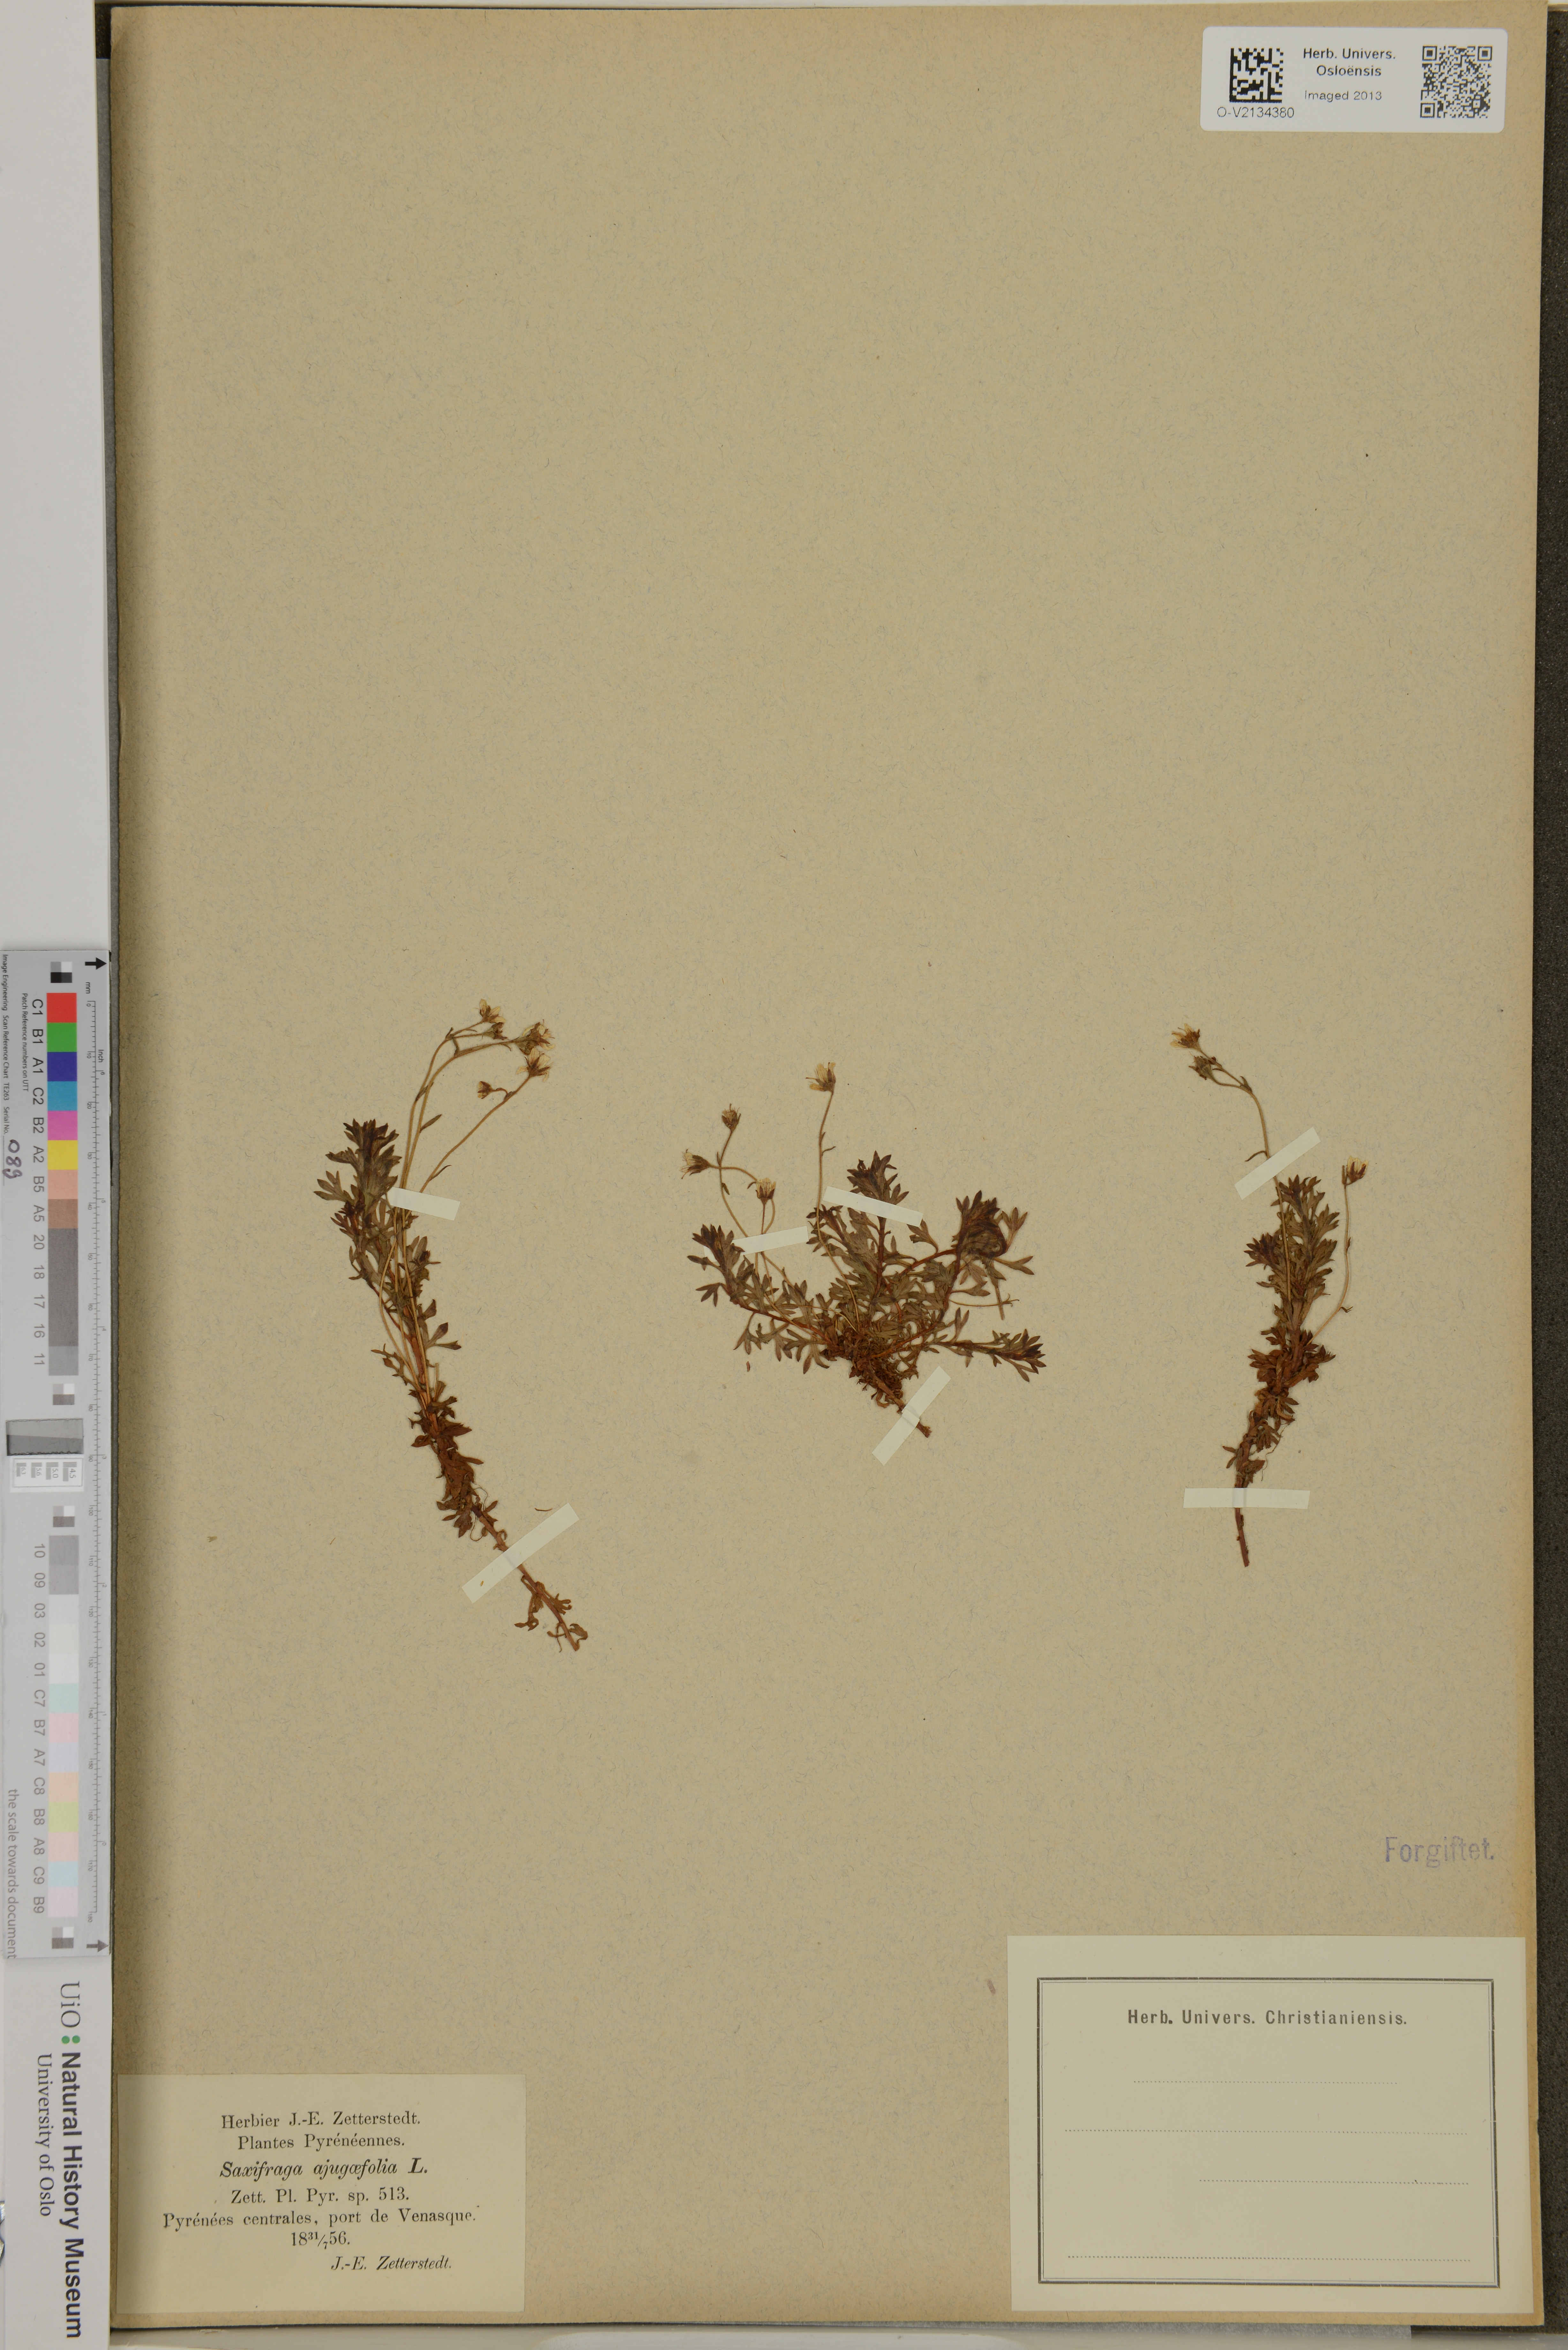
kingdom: Plantae
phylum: Tracheophyta
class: Magnoliopsida
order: Saxifragales
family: Saxifragaceae
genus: Saxifraga
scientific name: Saxifraga
